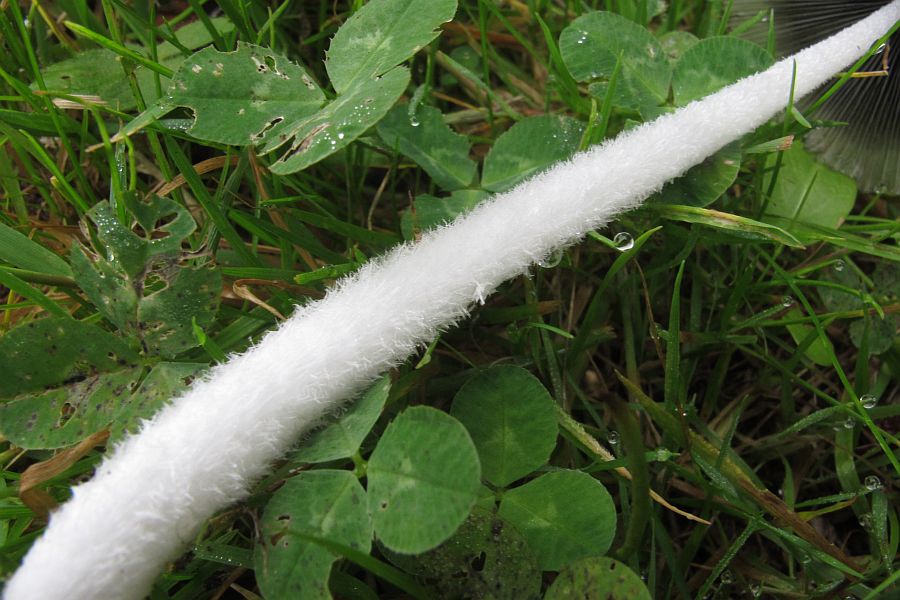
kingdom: Fungi
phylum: Basidiomycota
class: Agaricomycetes
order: Agaricales
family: Psathyrellaceae
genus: Coprinopsis
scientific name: Coprinopsis lagopus
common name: dunstokket blækhat
